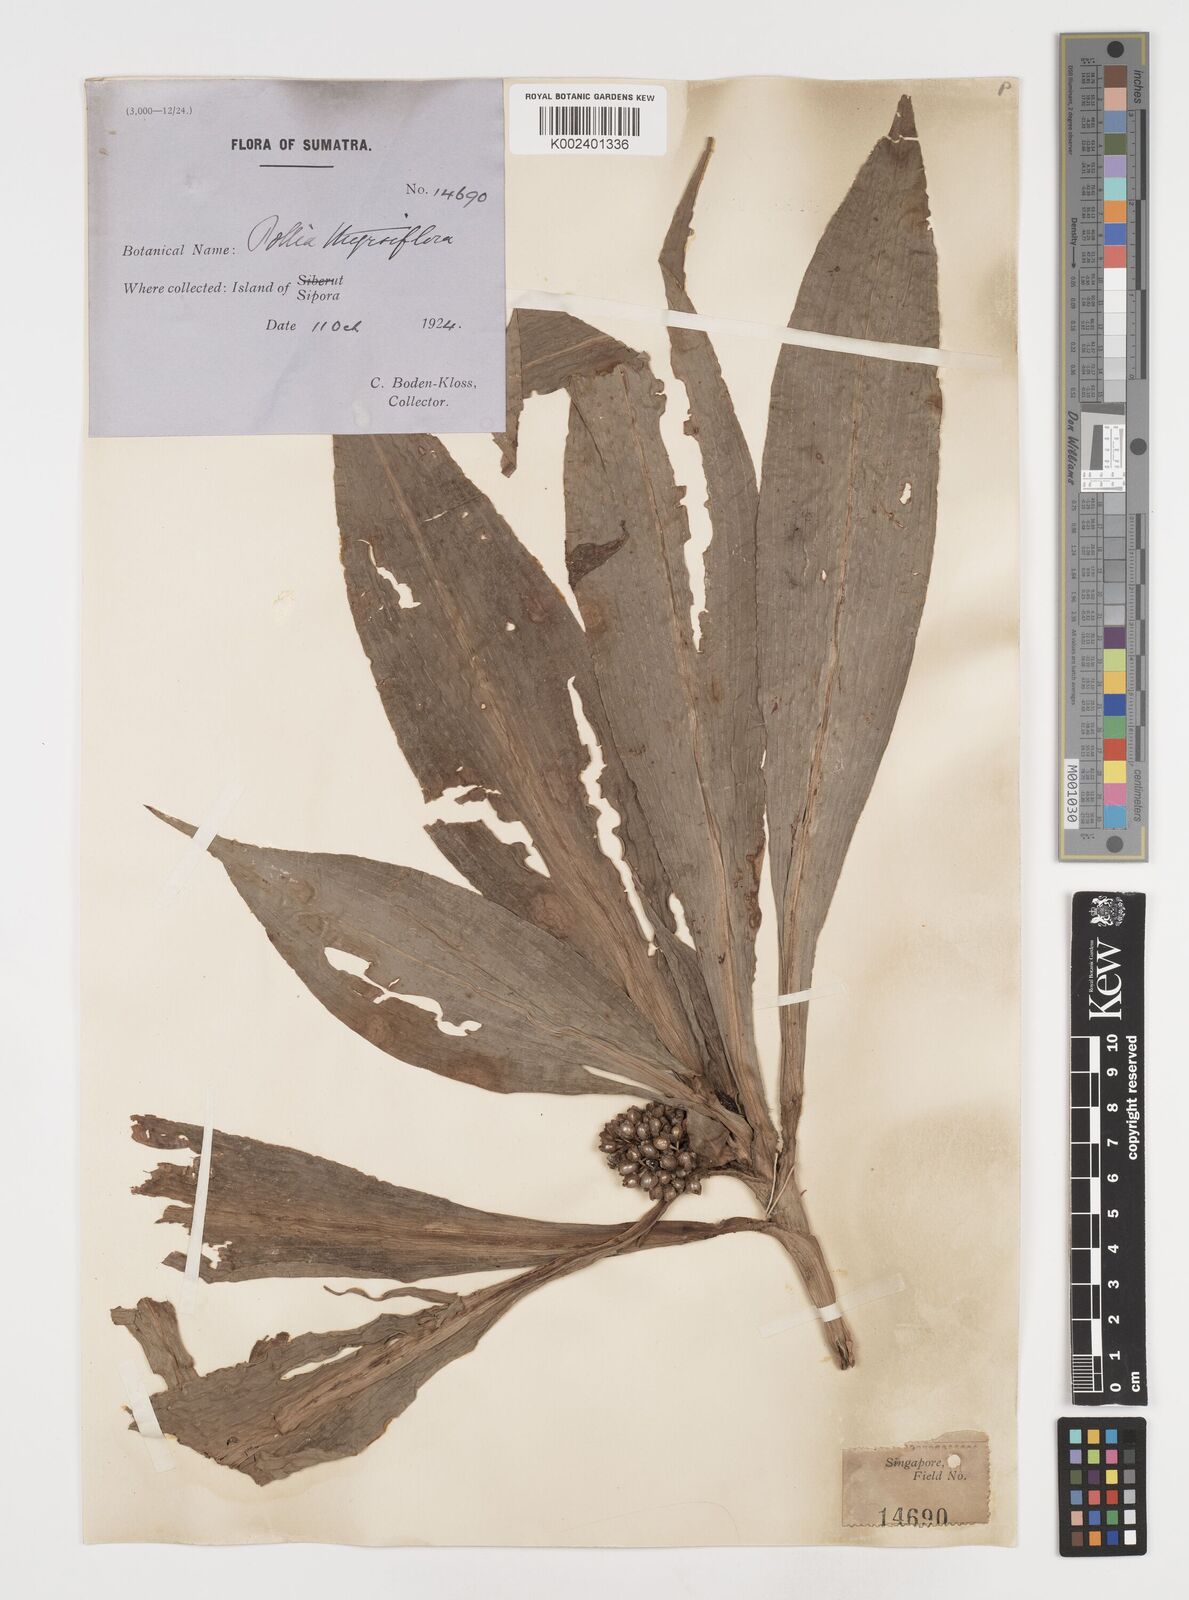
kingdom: Plantae
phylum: Tracheophyta
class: Liliopsida
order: Commelinales
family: Commelinaceae
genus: Pollia
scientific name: Pollia thyrsiflora
